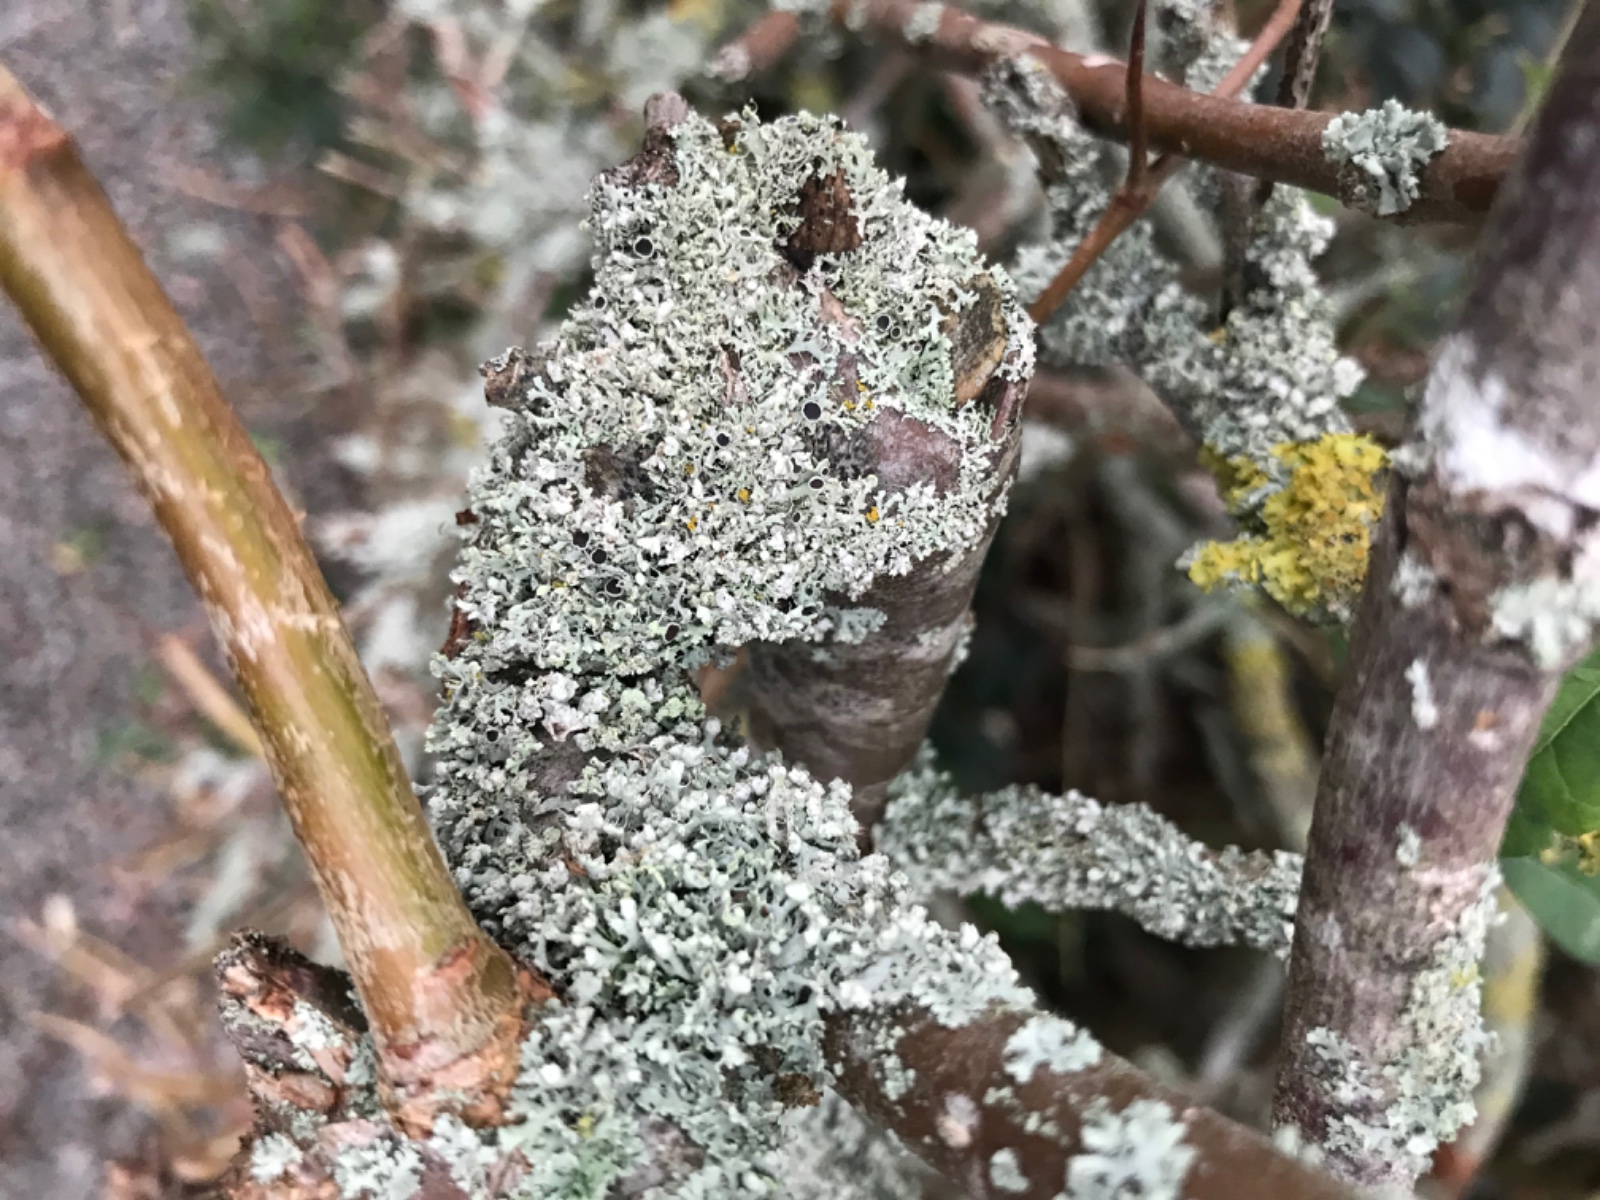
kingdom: Fungi
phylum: Ascomycota
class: Lecanoromycetes
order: Caliciales
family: Physciaceae
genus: Physcia
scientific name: Physcia tenella
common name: spæd rosetlav
